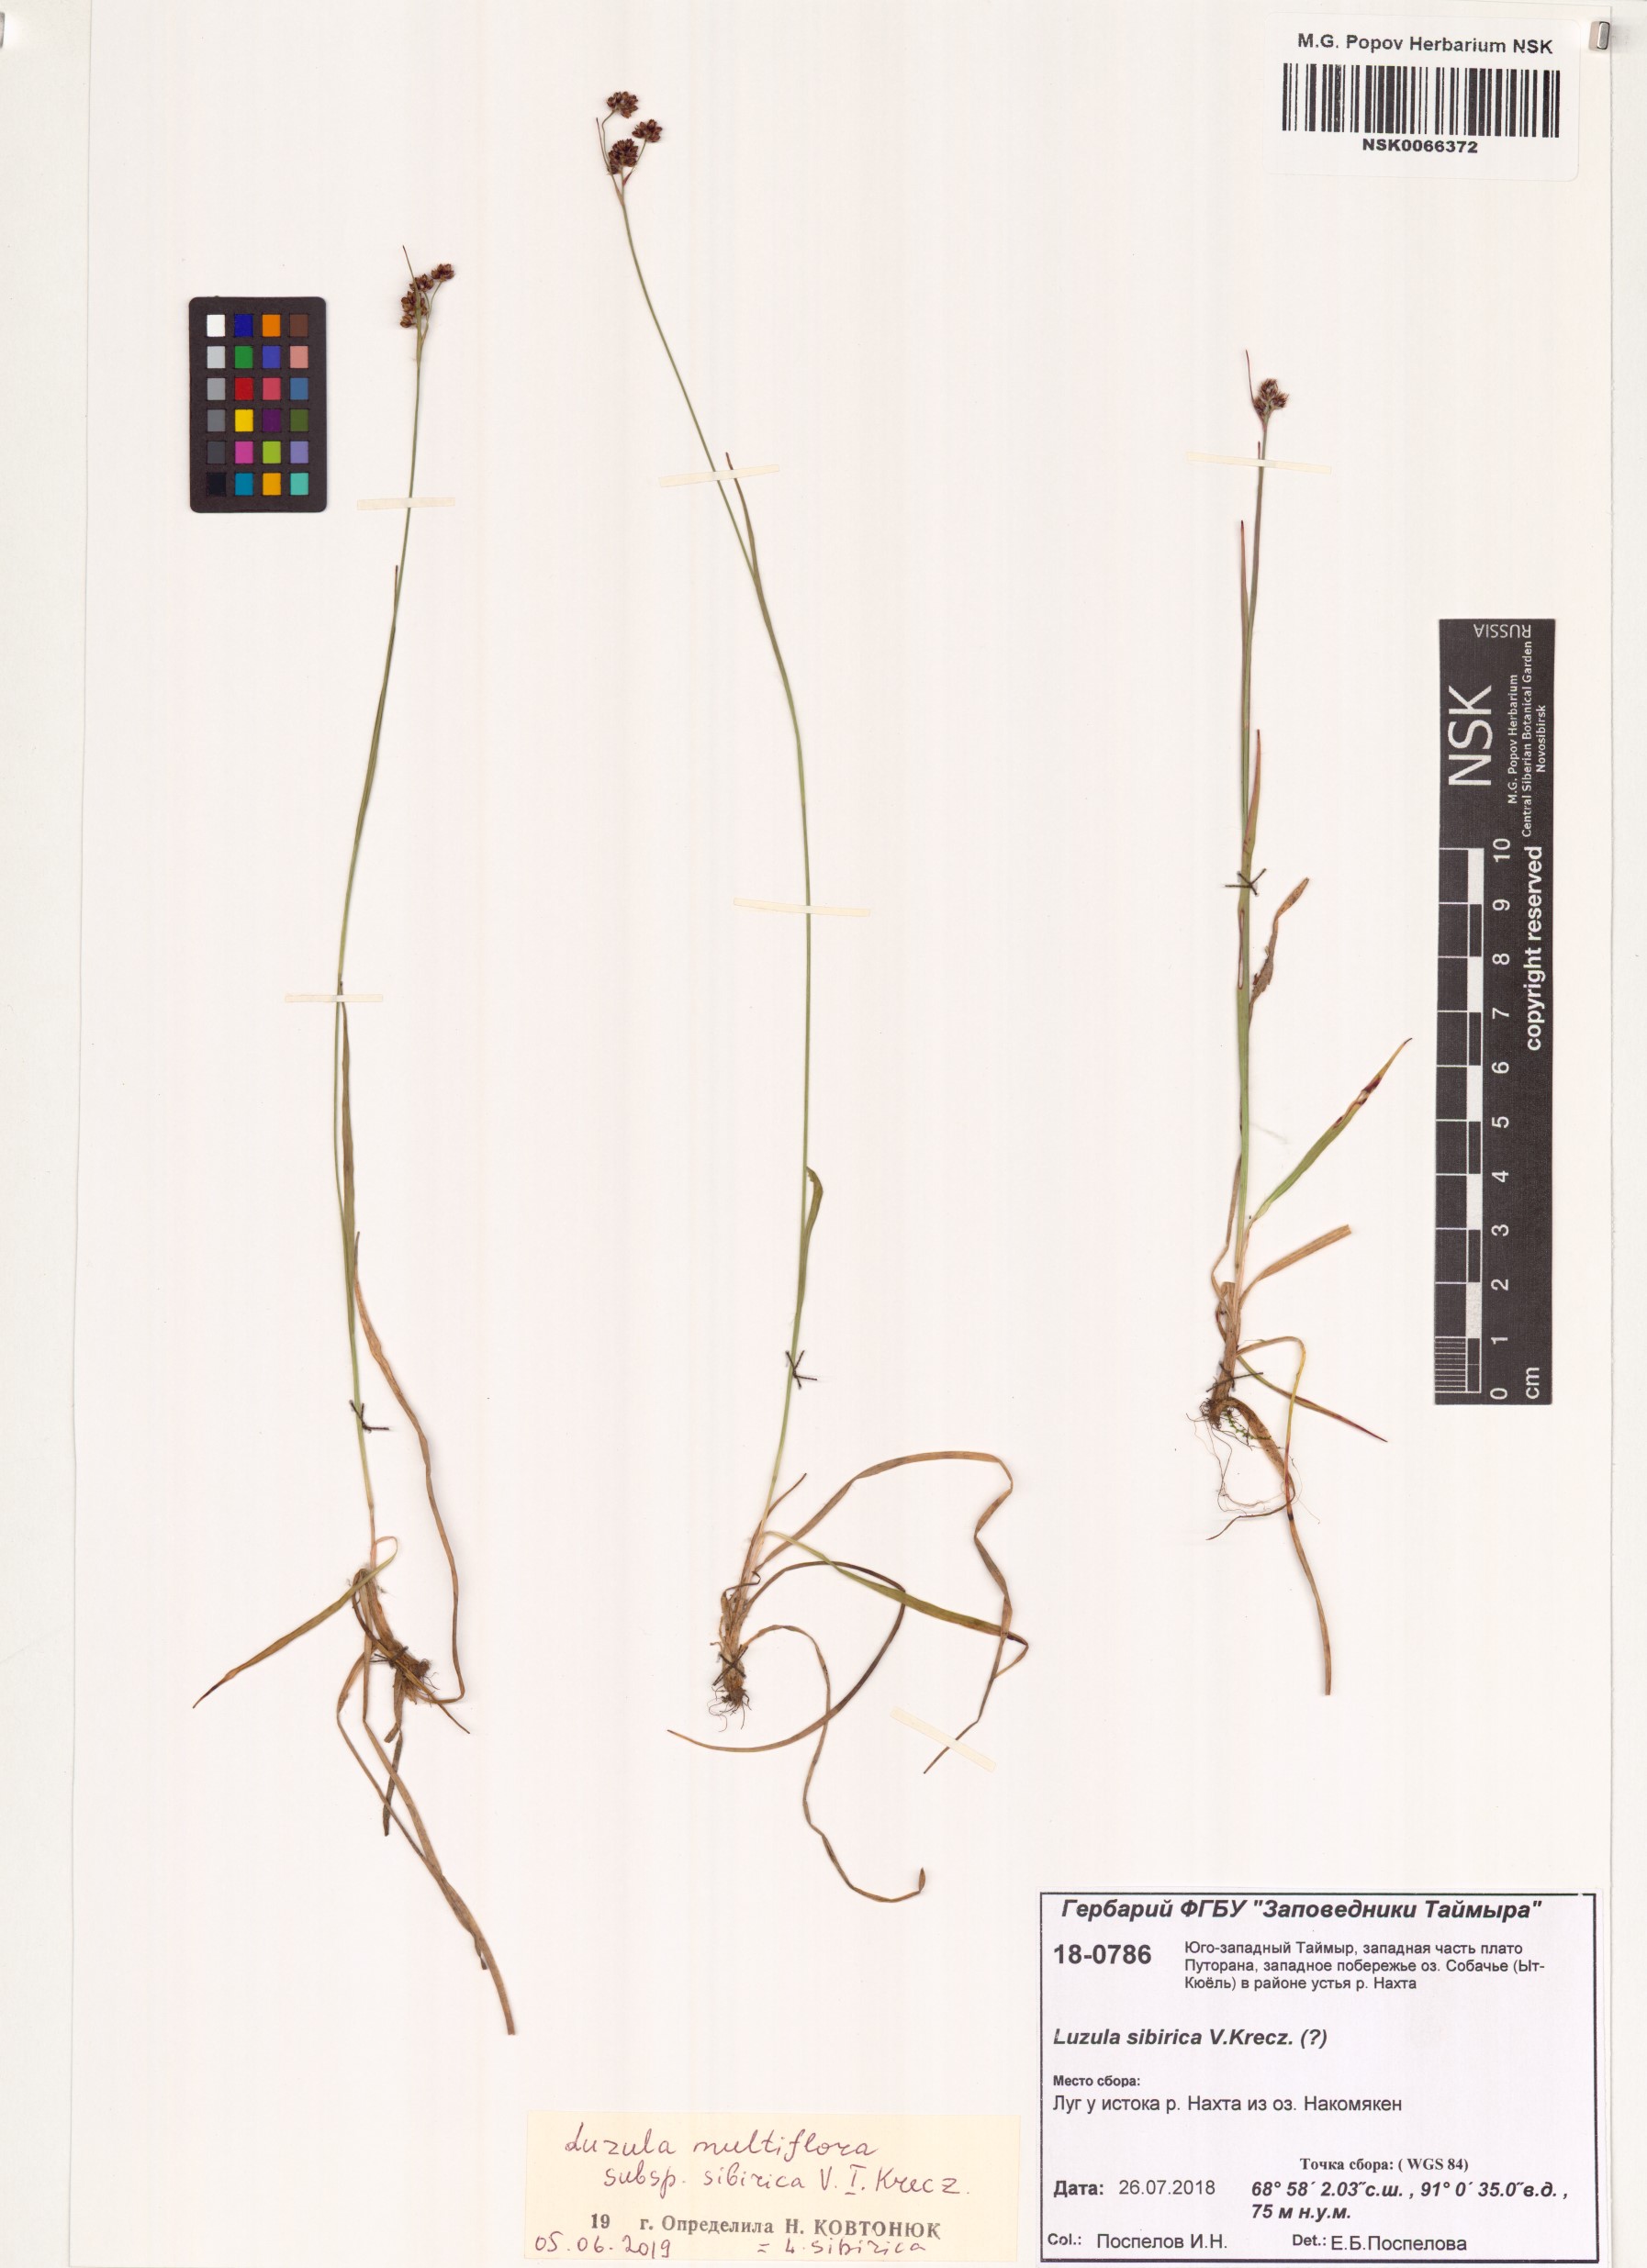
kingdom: Plantae
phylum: Tracheophyta
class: Liliopsida
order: Poales
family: Juncaceae
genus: Luzula
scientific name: Luzula multiflora
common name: Heath wood-rush
